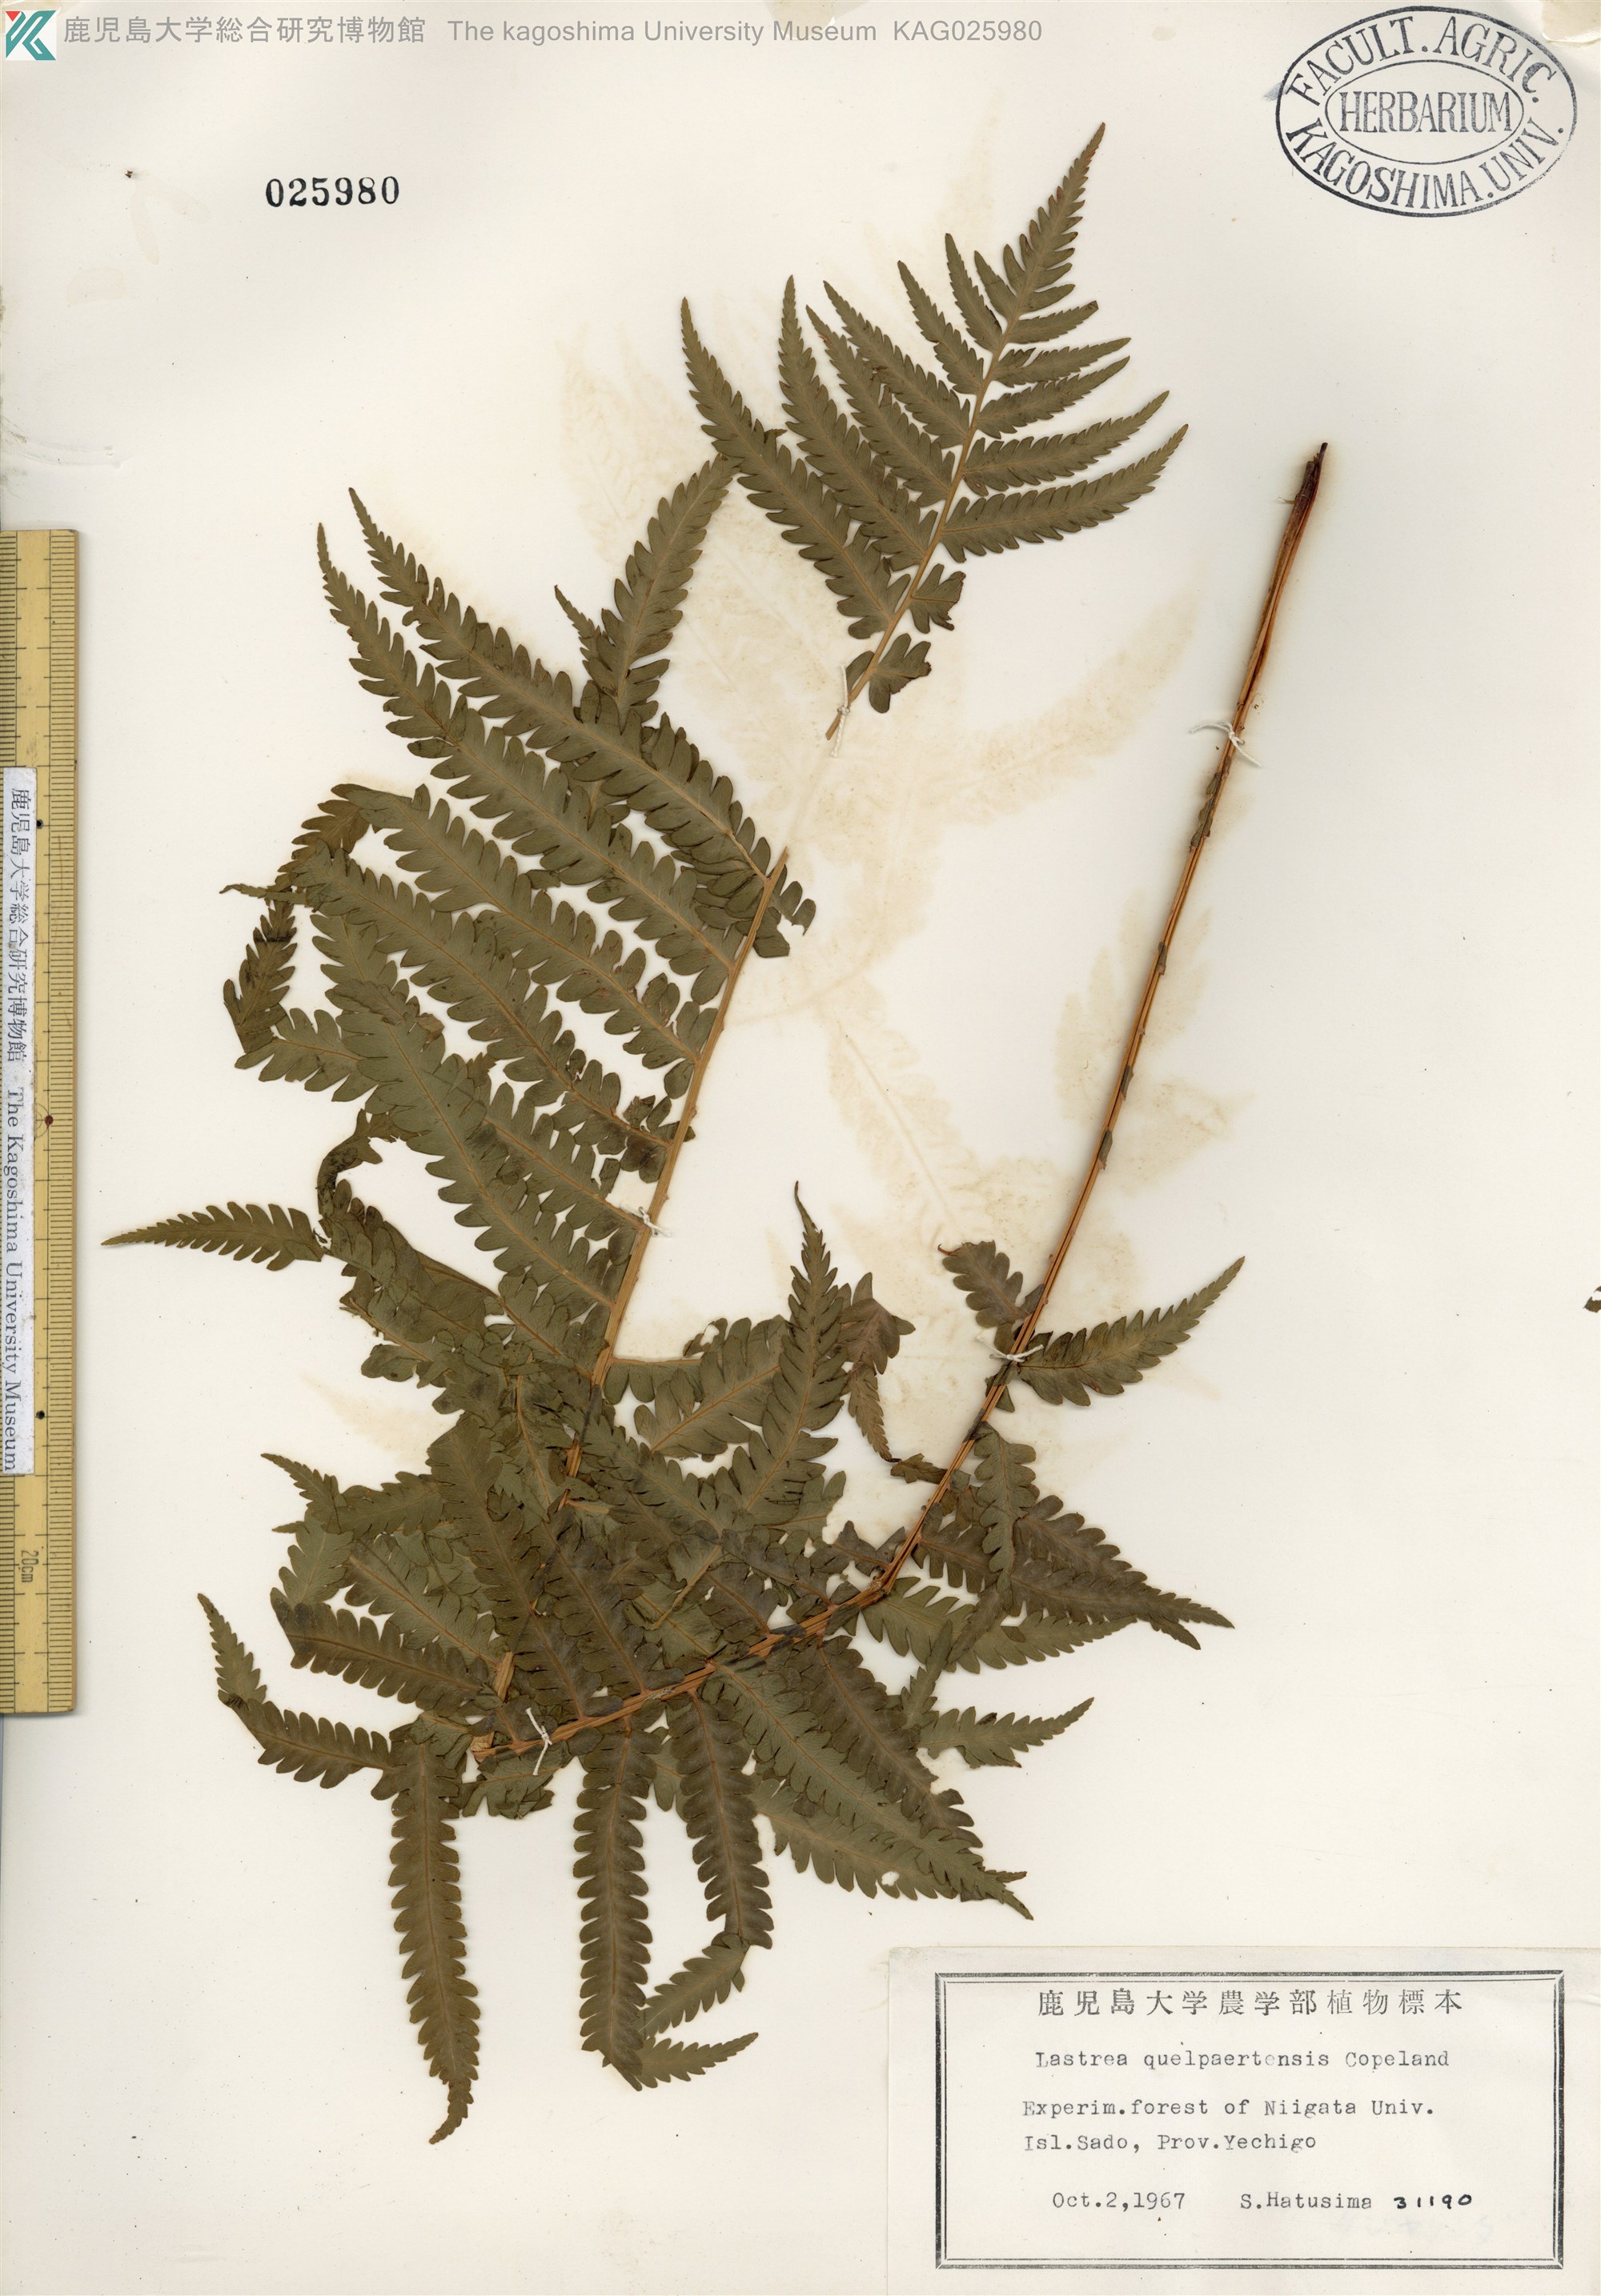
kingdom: Plantae
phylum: Tracheophyta
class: Polypodiopsida
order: Polypodiales
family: Thelypteridaceae
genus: Oreopteris
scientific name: Oreopteris quelpartensis
